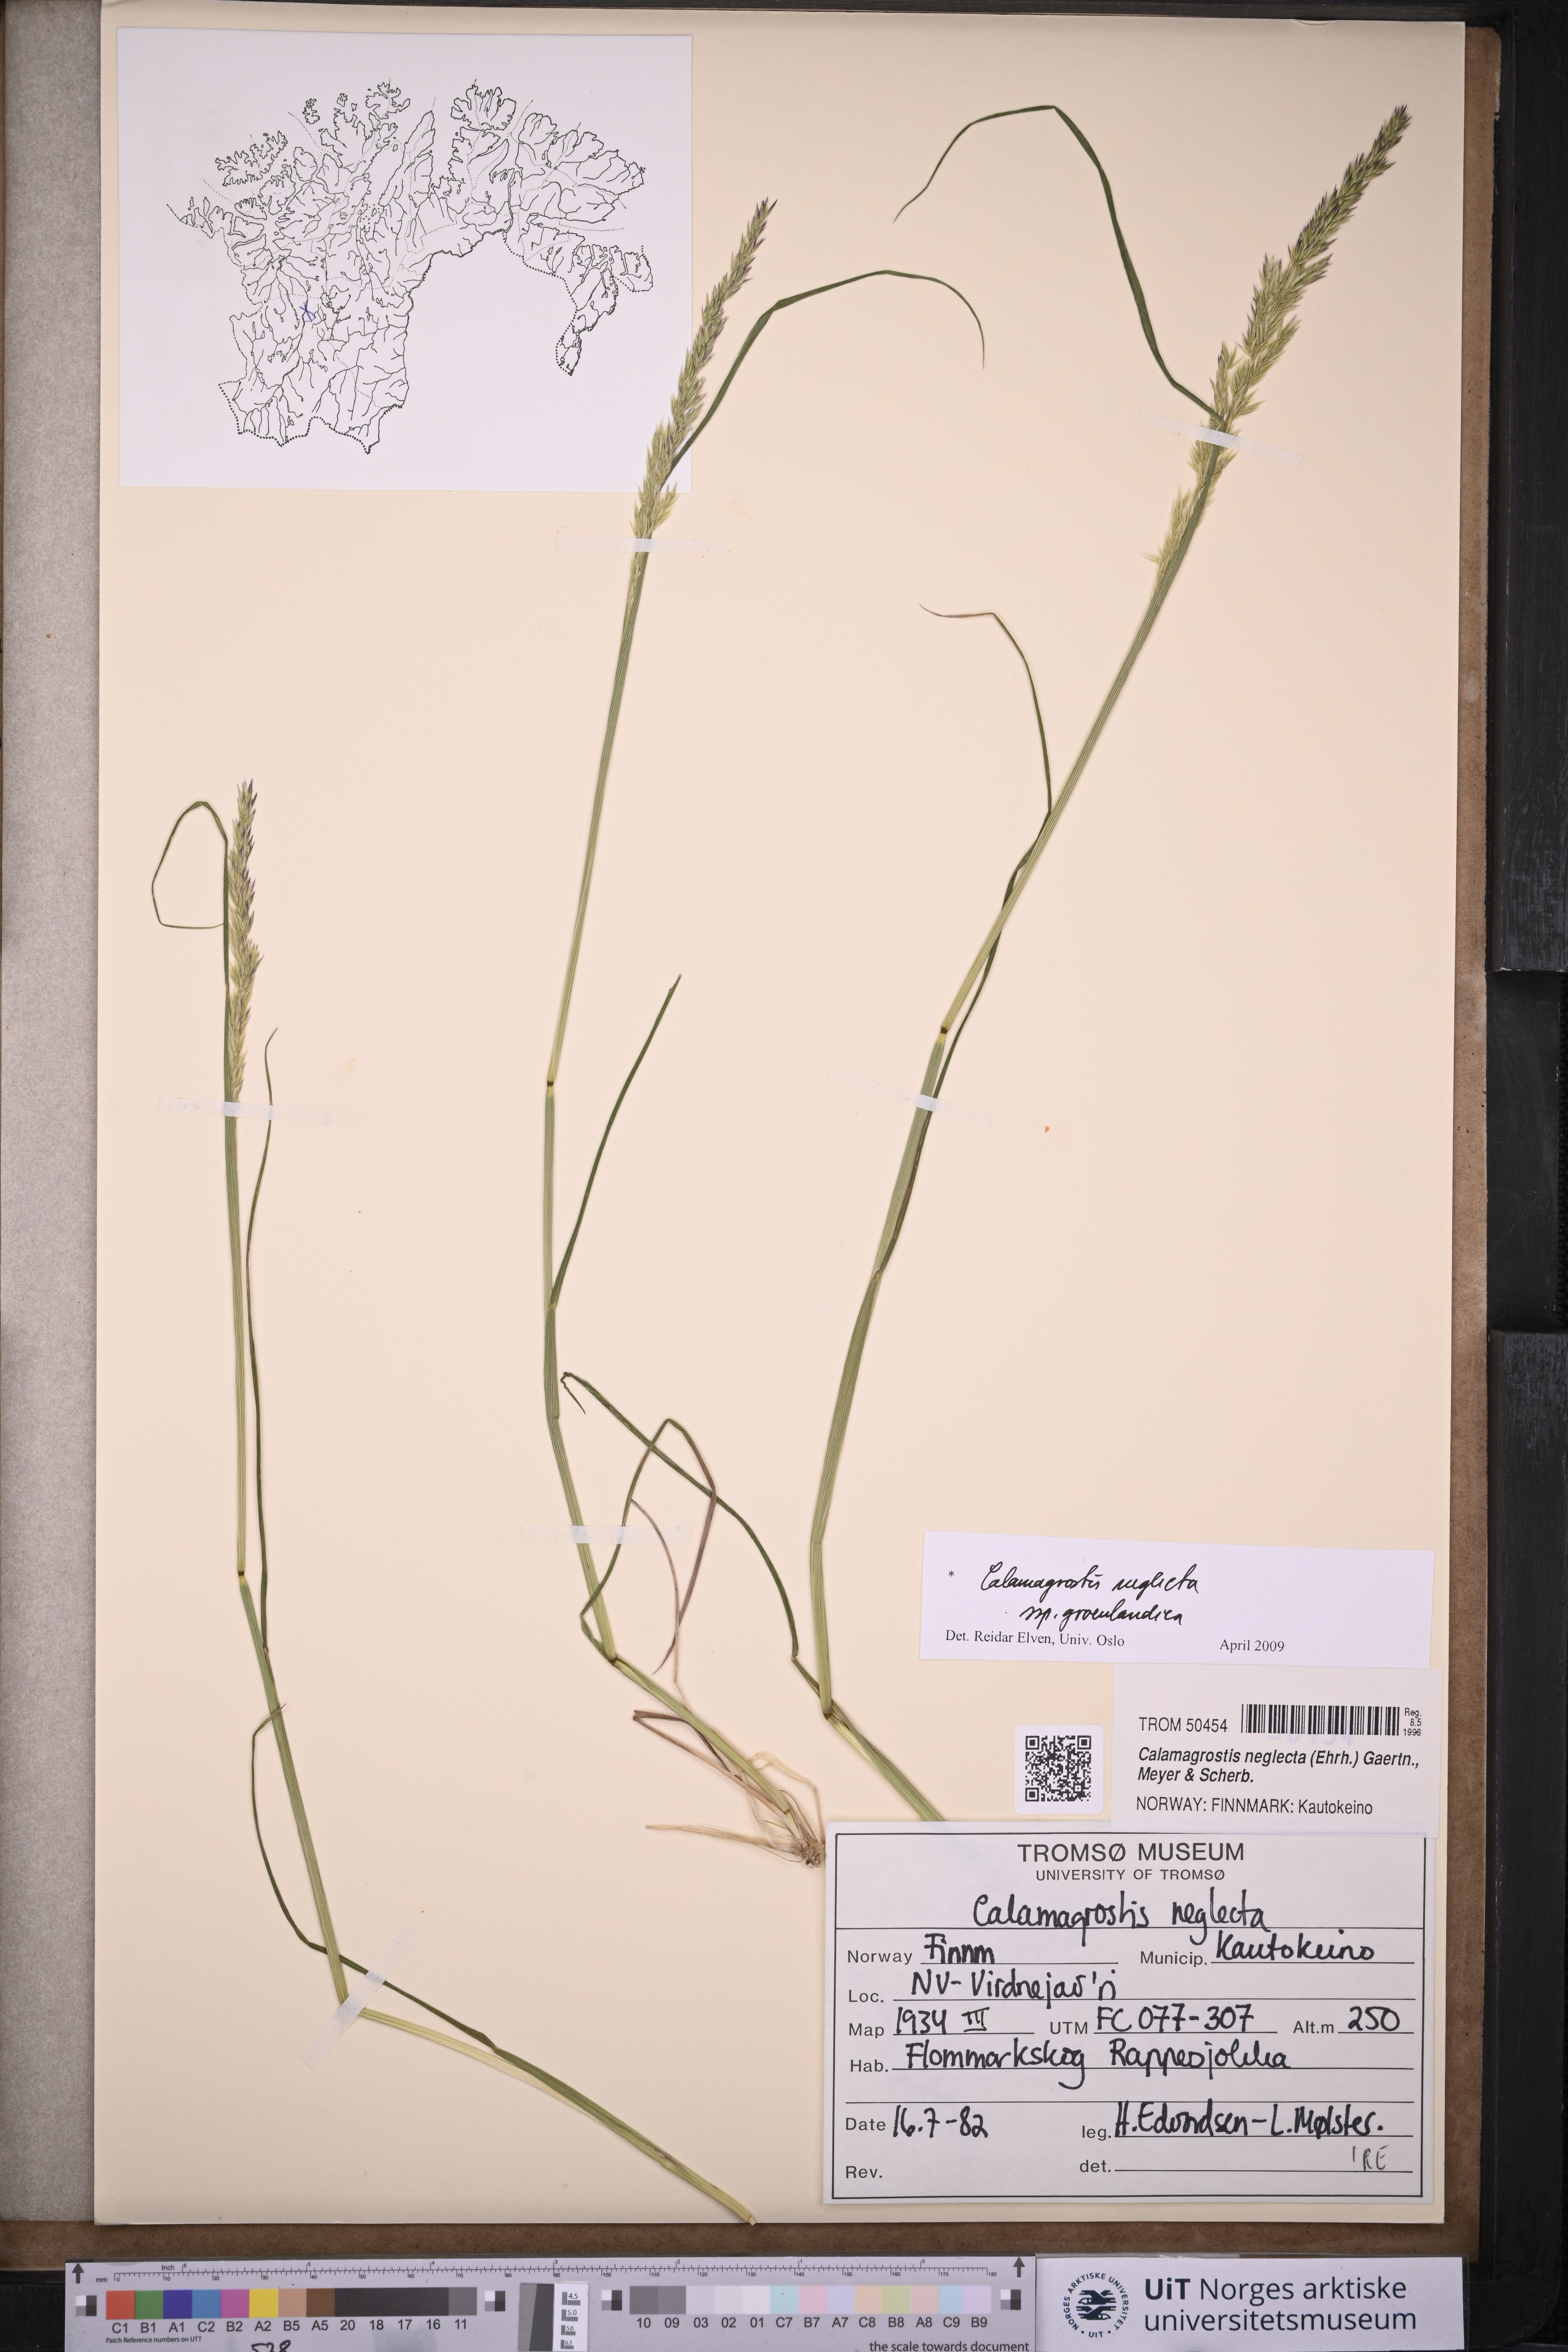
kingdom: Plantae
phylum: Tracheophyta
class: Liliopsida
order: Poales
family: Poaceae
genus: Calamagrostis
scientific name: Calamagrostis stricta
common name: Narrow small-reed
